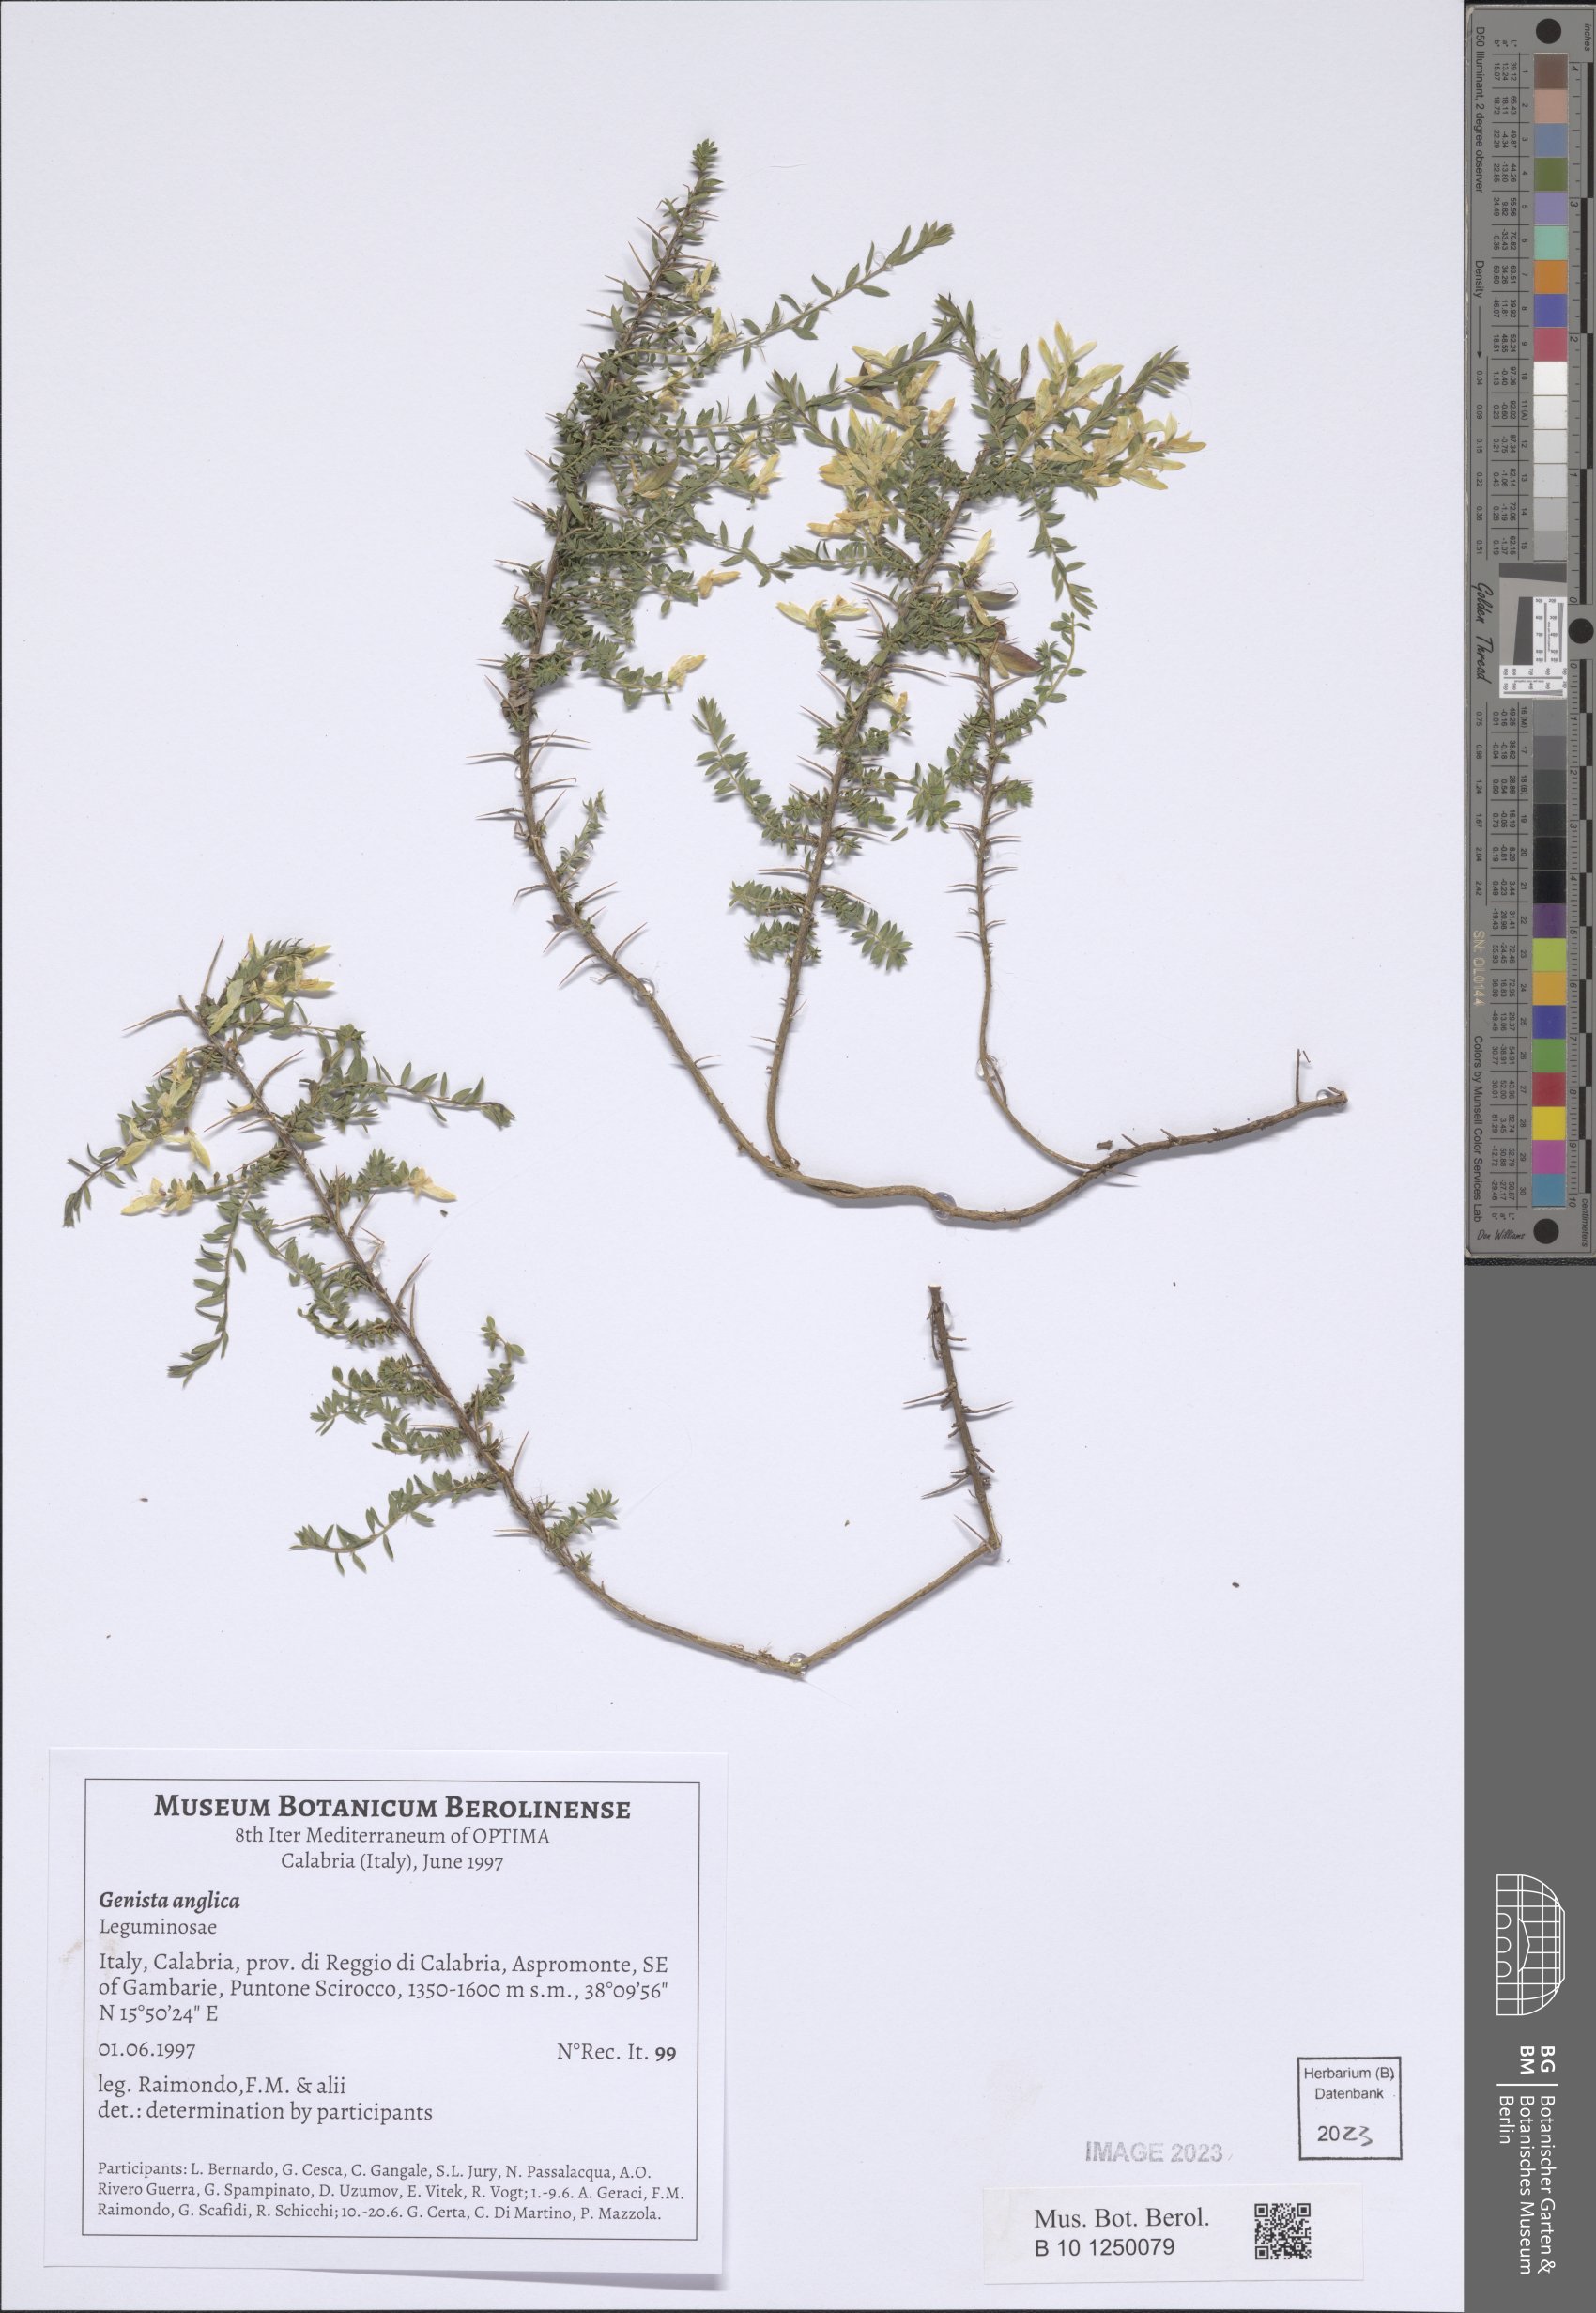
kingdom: Plantae
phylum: Tracheophyta
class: Magnoliopsida
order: Fabales
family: Fabaceae
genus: Genista
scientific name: Genista anglica
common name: Petty whin
